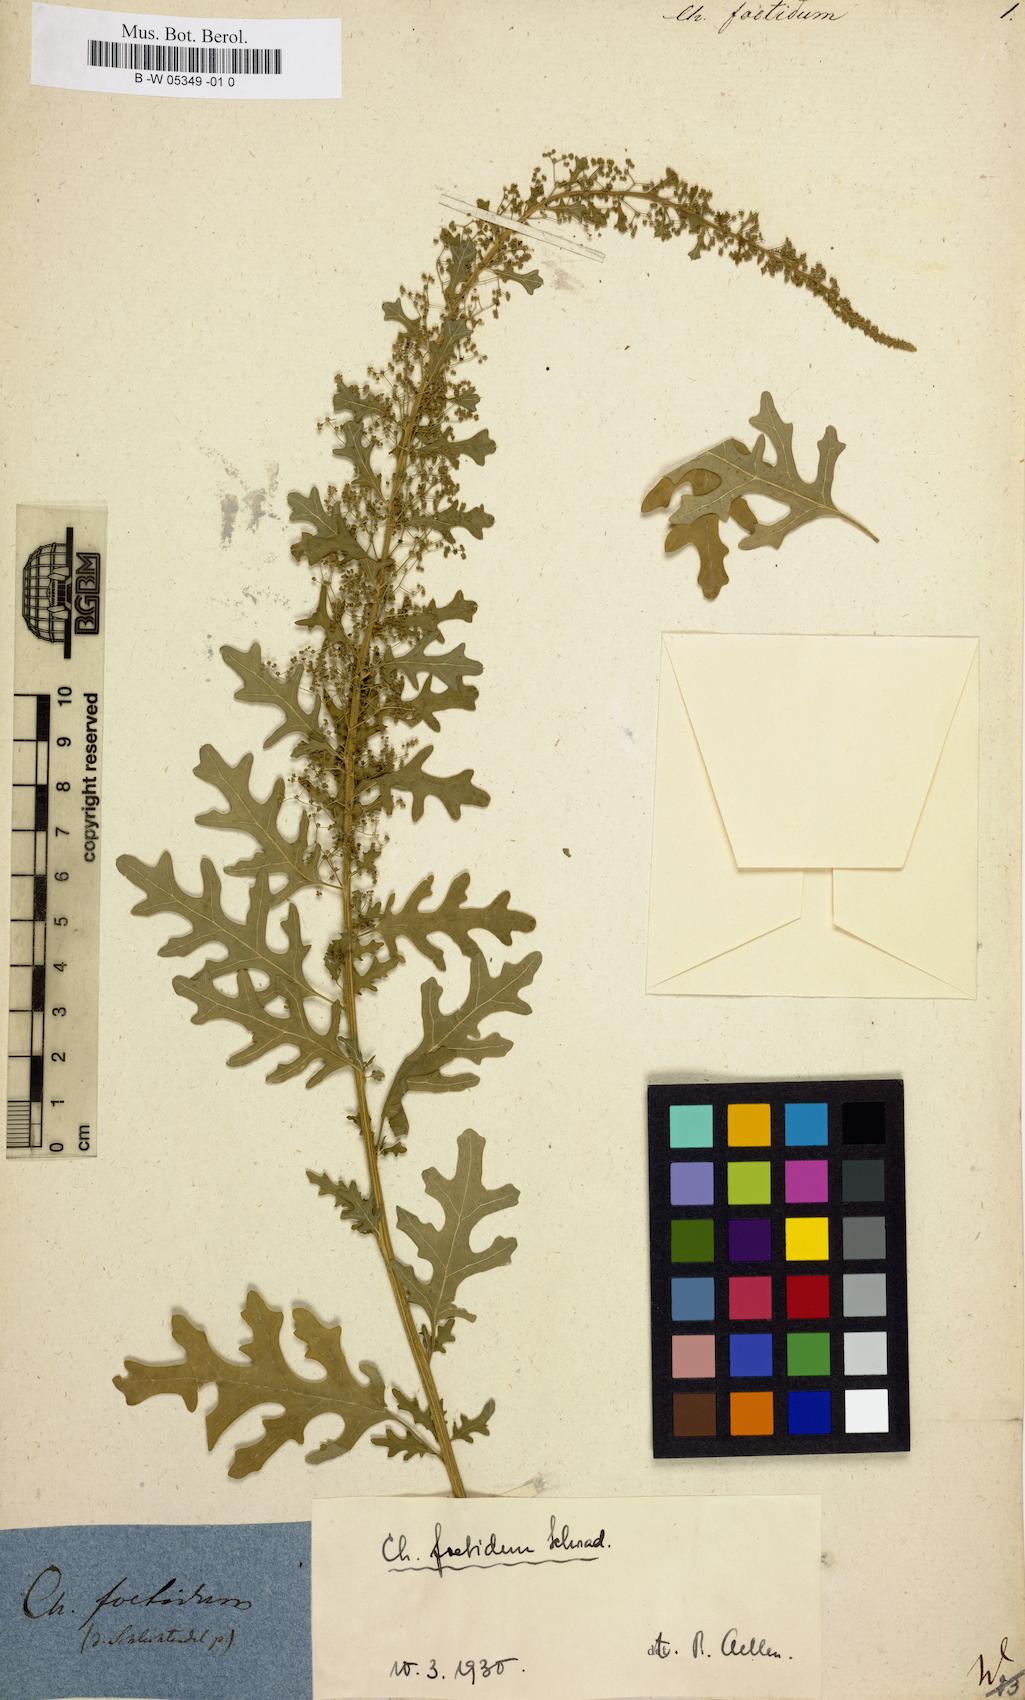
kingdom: Plantae
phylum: Tracheophyta
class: Magnoliopsida
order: Caryophyllales
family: Amaranthaceae
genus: Chenopodium
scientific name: Chenopodium vulvaria
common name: Stinking goosefoot
